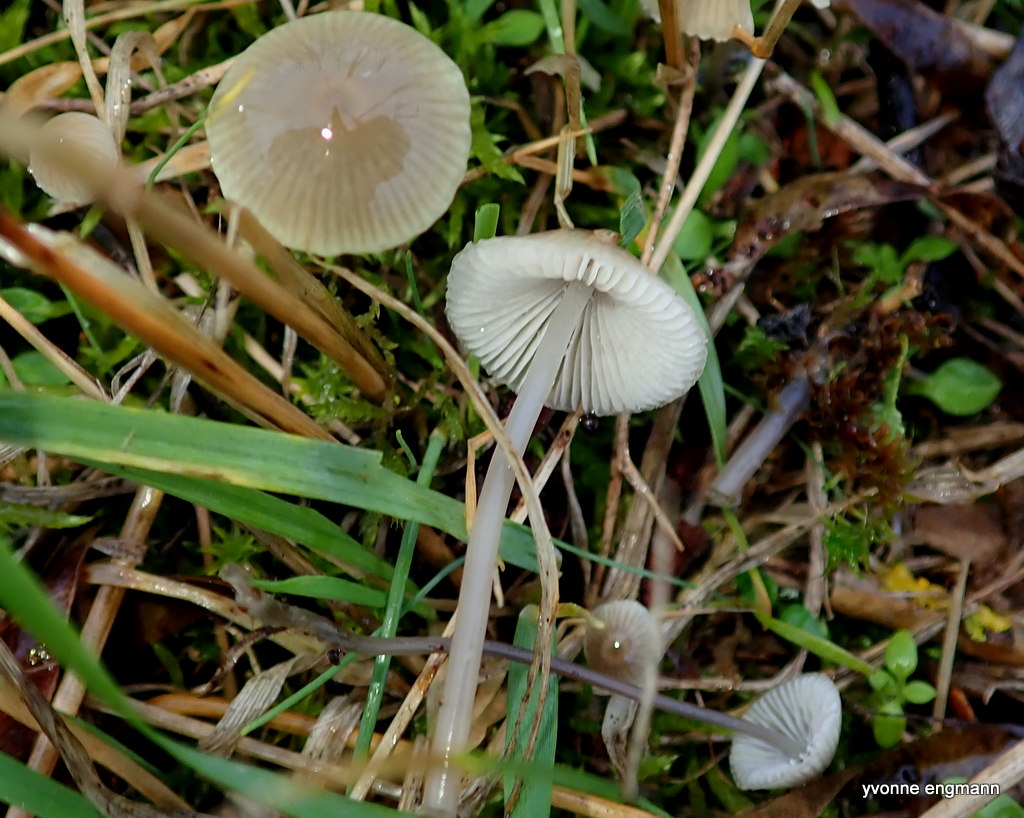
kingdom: Fungi
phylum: Basidiomycota
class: Agaricomycetes
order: Agaricales
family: Mycenaceae
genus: Mycena
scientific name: Mycena
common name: huesvamp
